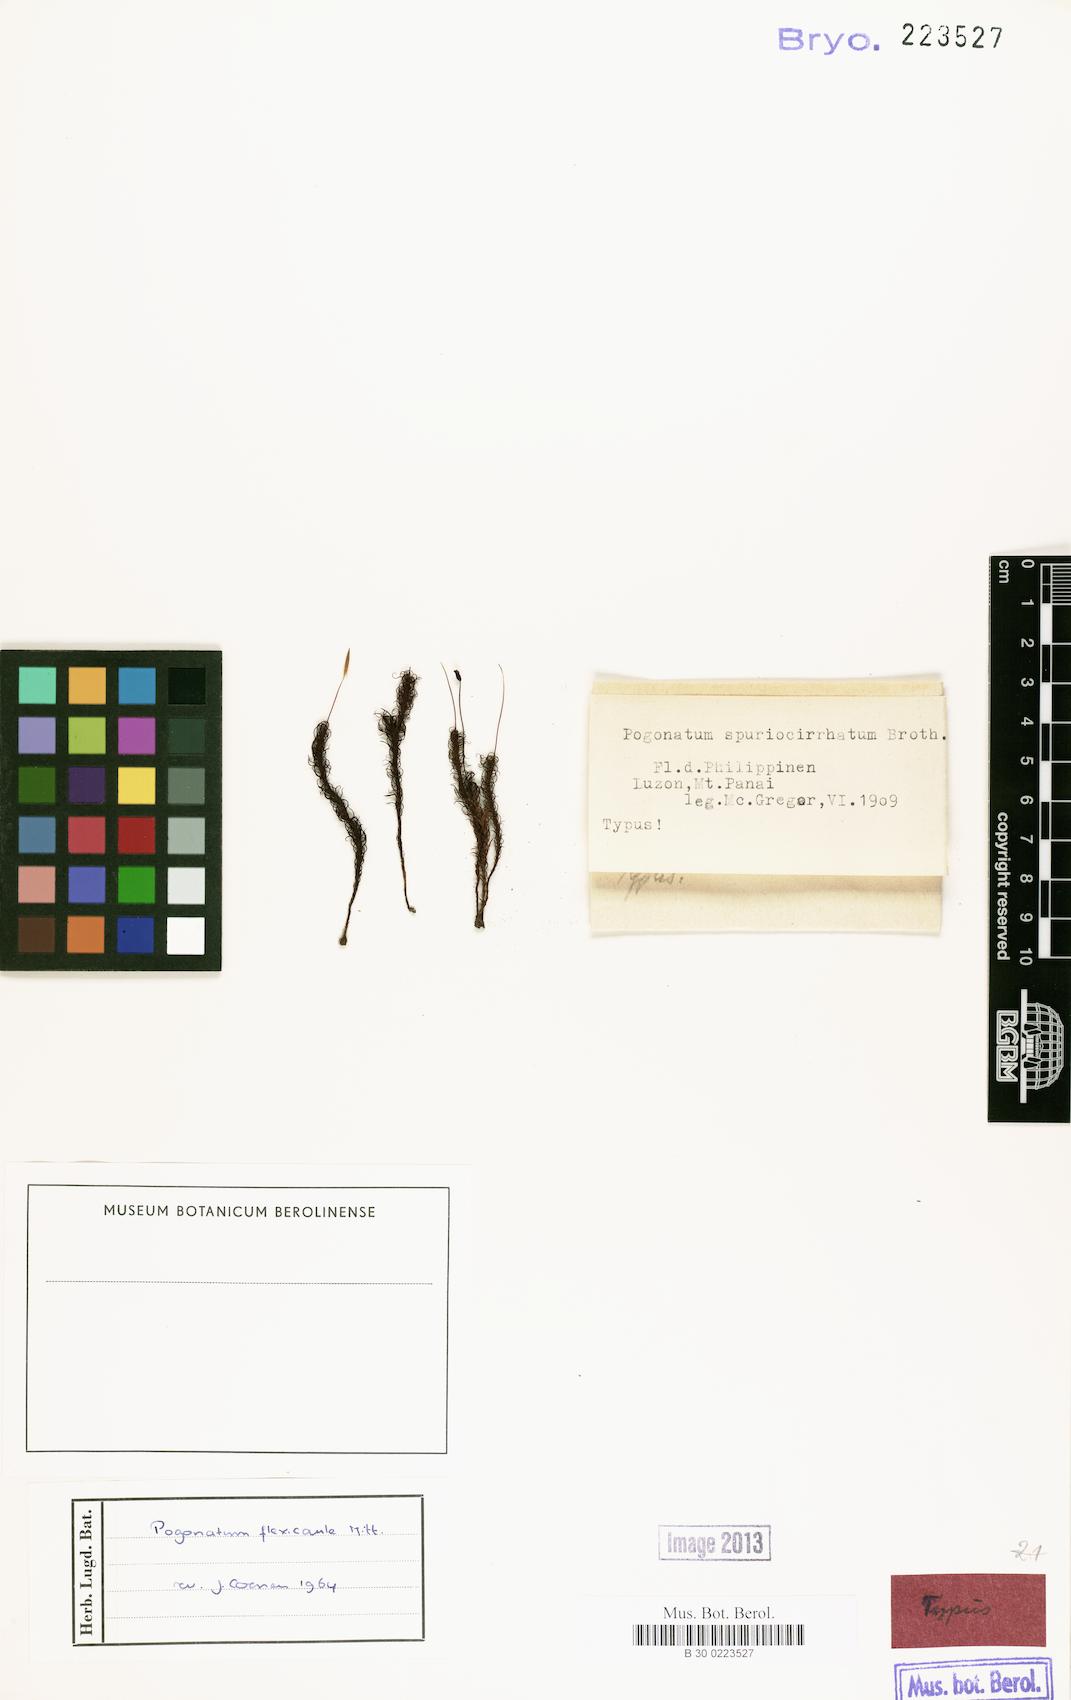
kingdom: Plantae
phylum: Bryophyta
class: Polytrichopsida
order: Polytrichales
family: Polytrichaceae
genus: Pogonatum
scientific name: Pogonatum cirratum
